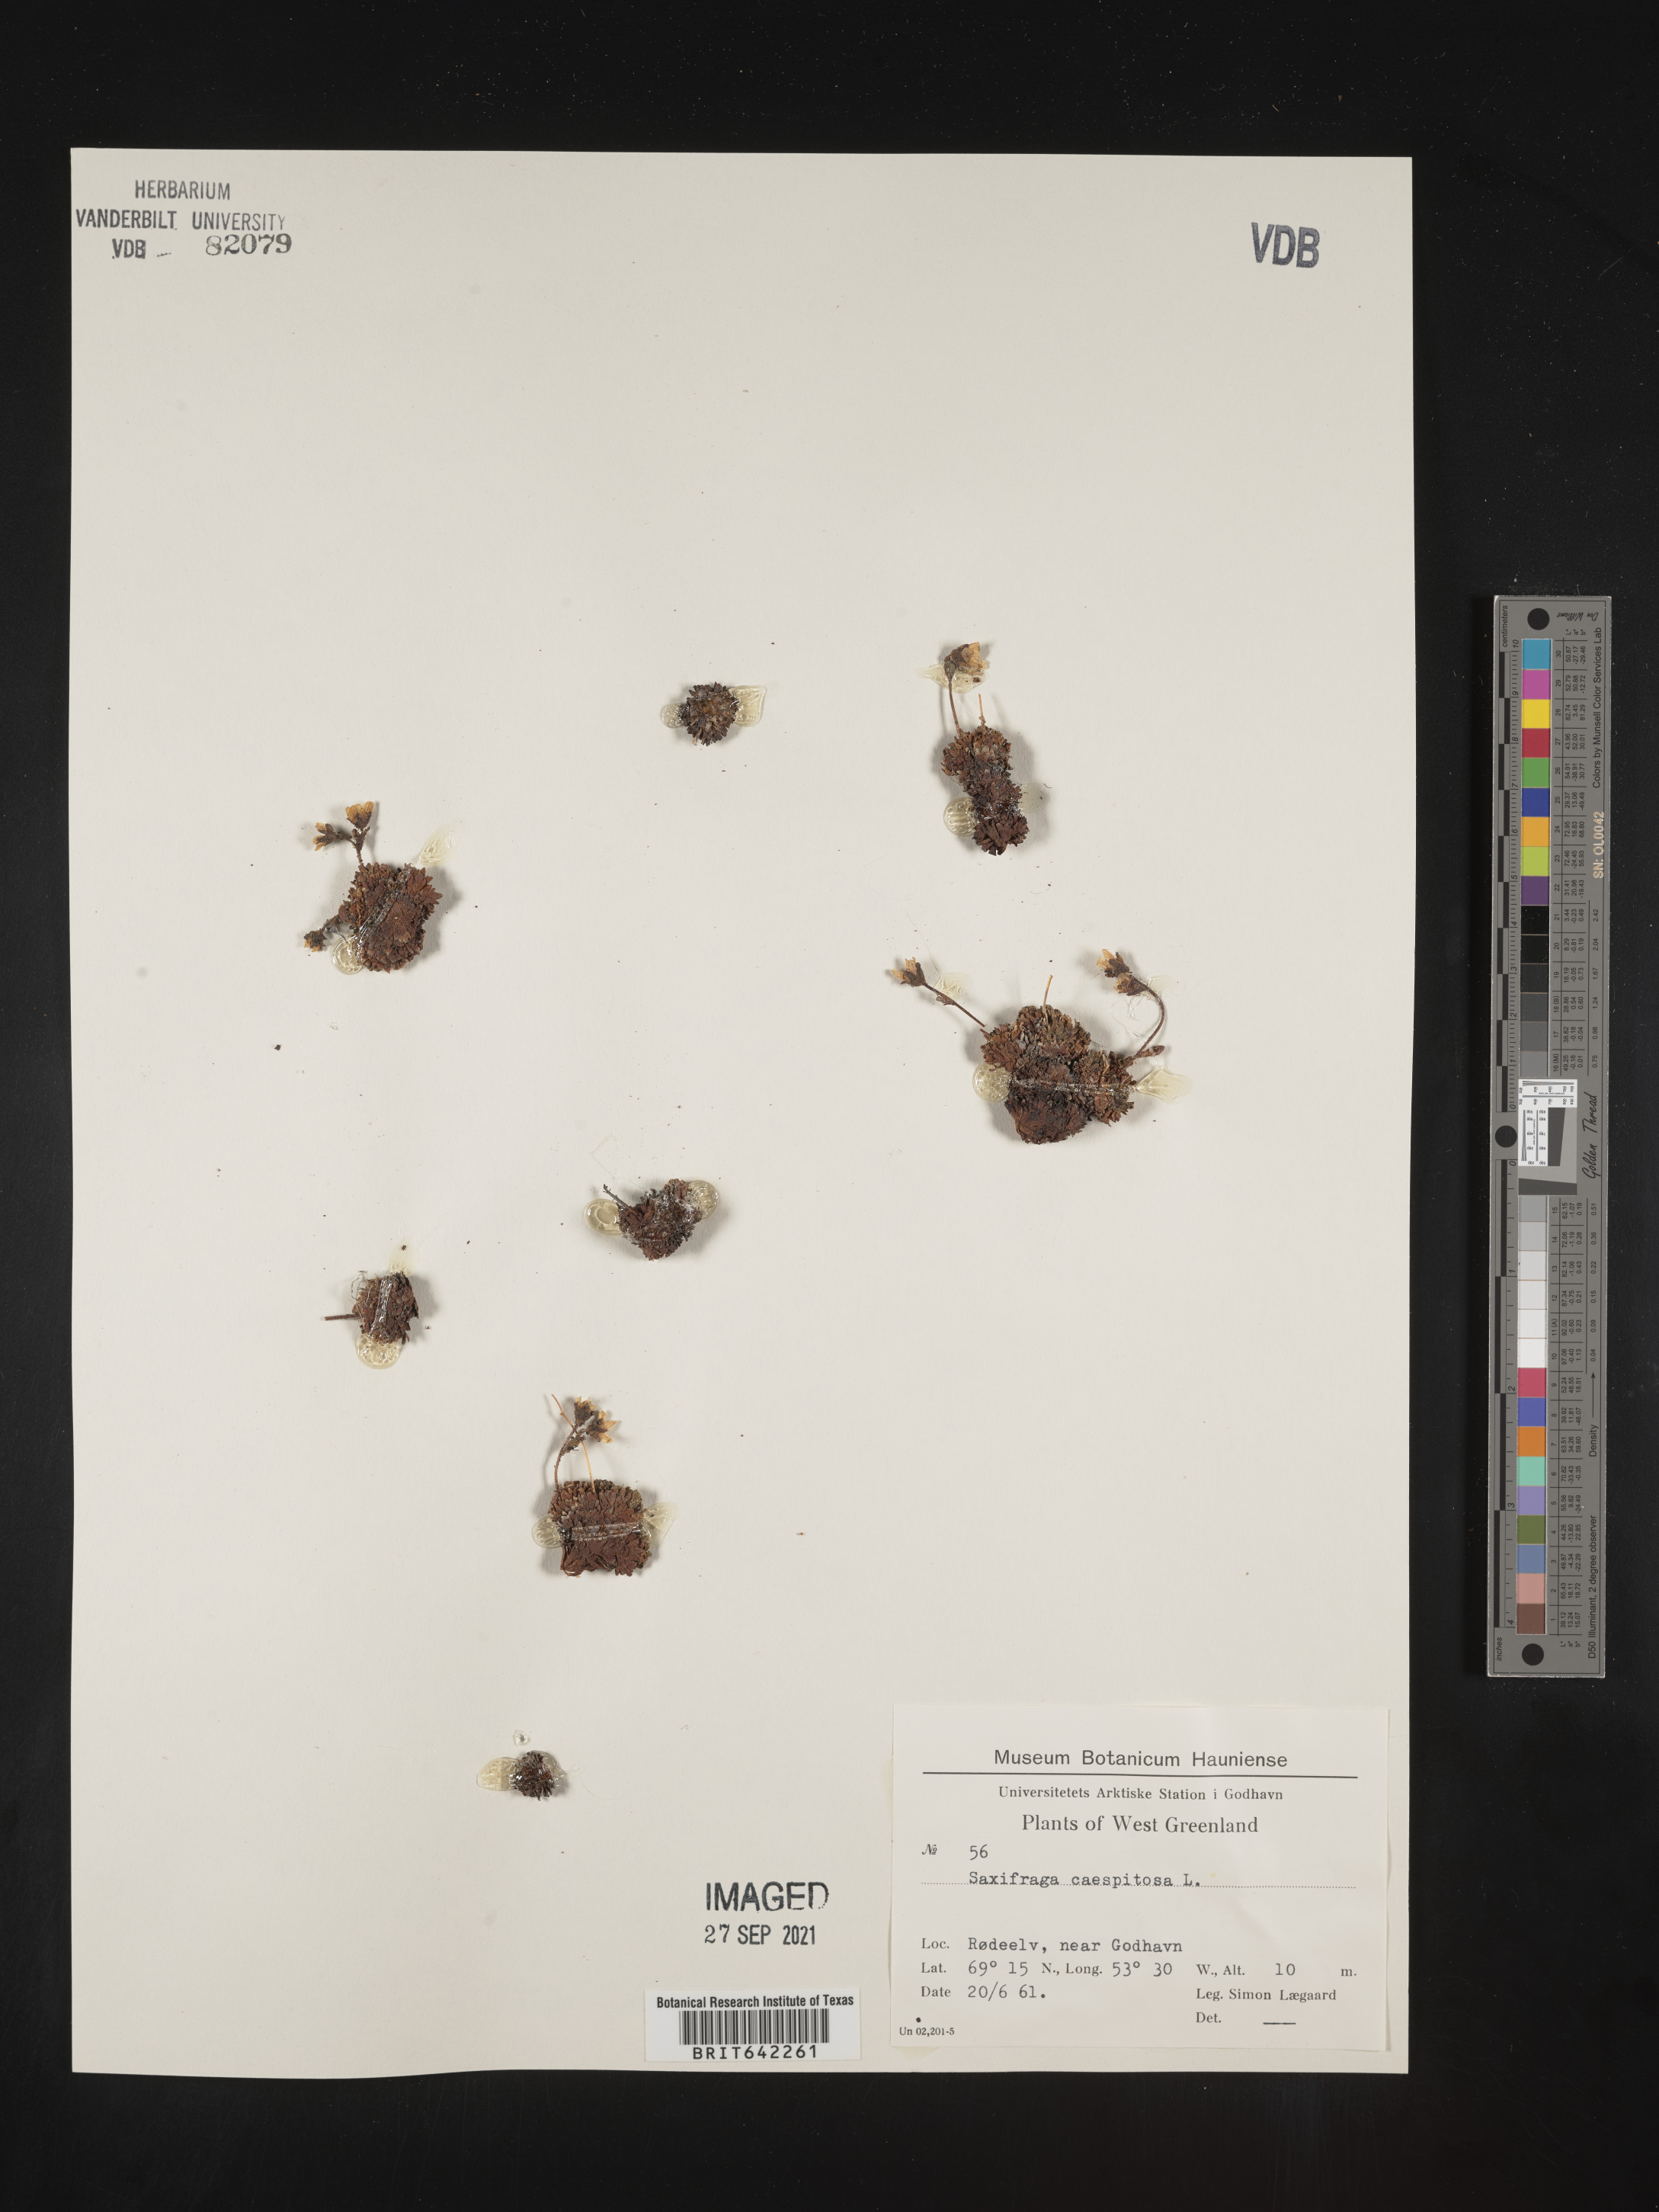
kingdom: Plantae
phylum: Tracheophyta
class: Magnoliopsida
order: Saxifragales
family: Saxifragaceae
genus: Saxifraga
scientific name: Saxifraga
